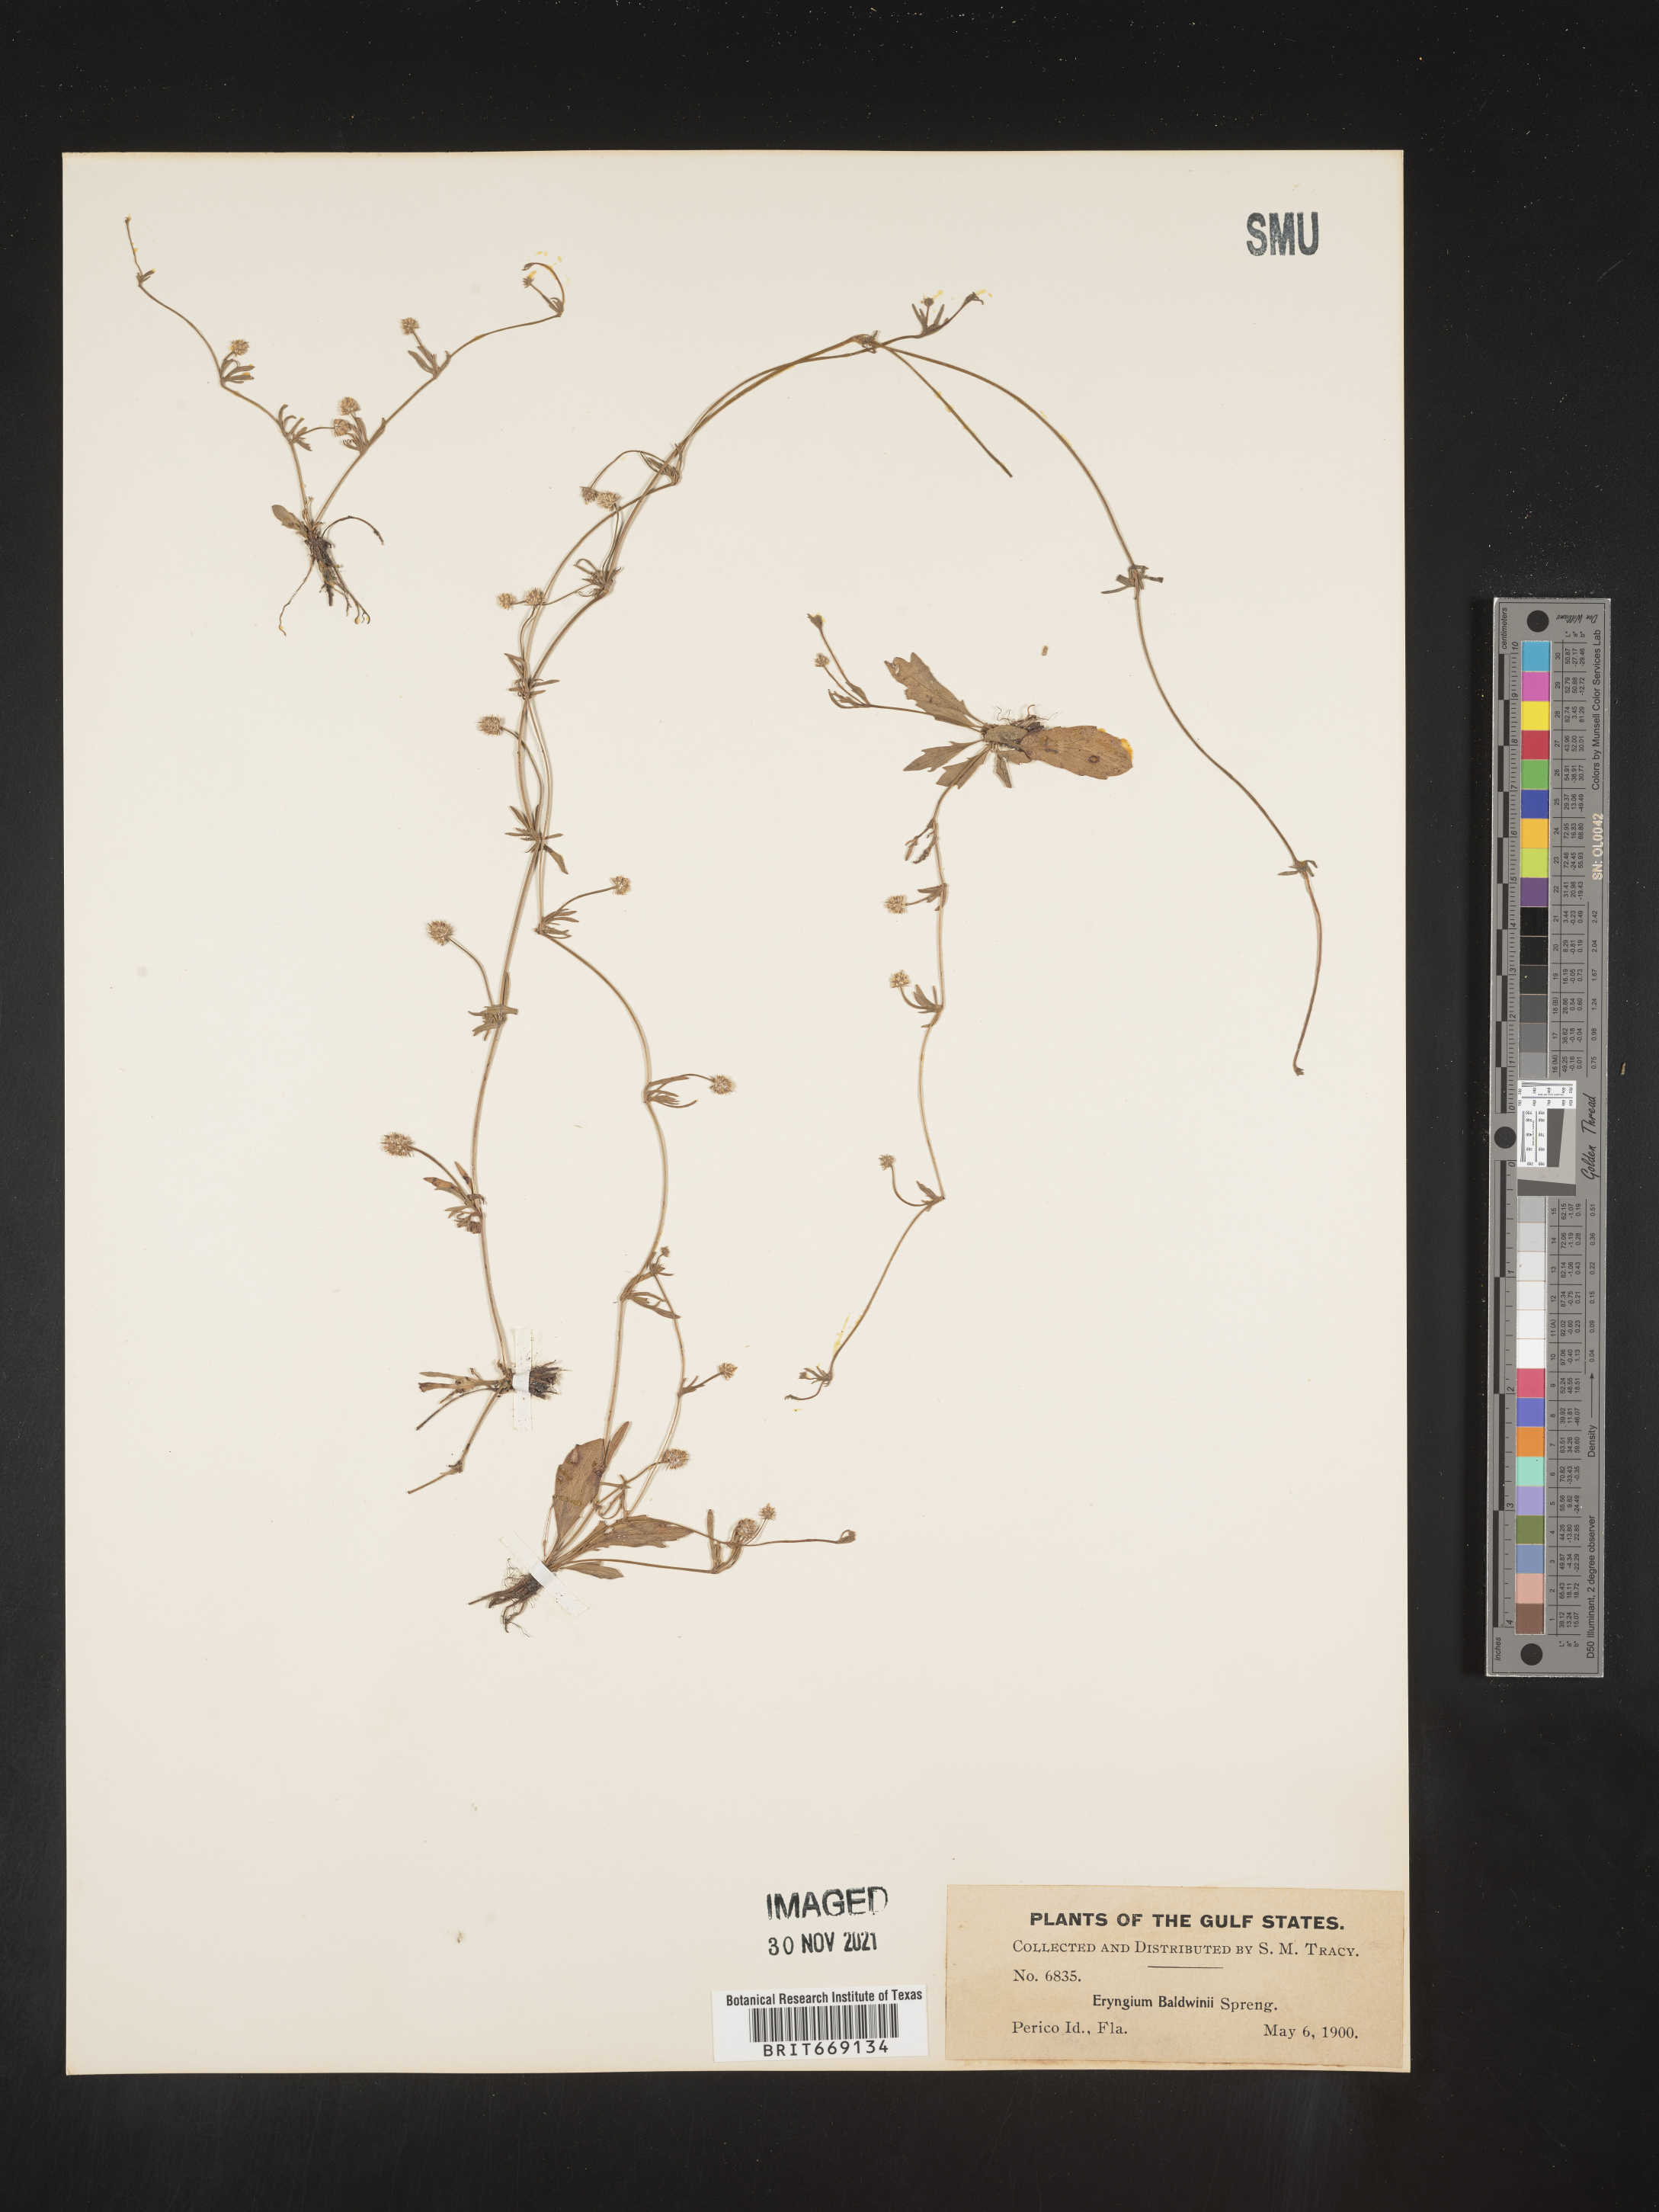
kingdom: Plantae
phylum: Tracheophyta
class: Magnoliopsida
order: Apiales
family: Apiaceae
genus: Eryngium
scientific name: Eryngium baldwinii
